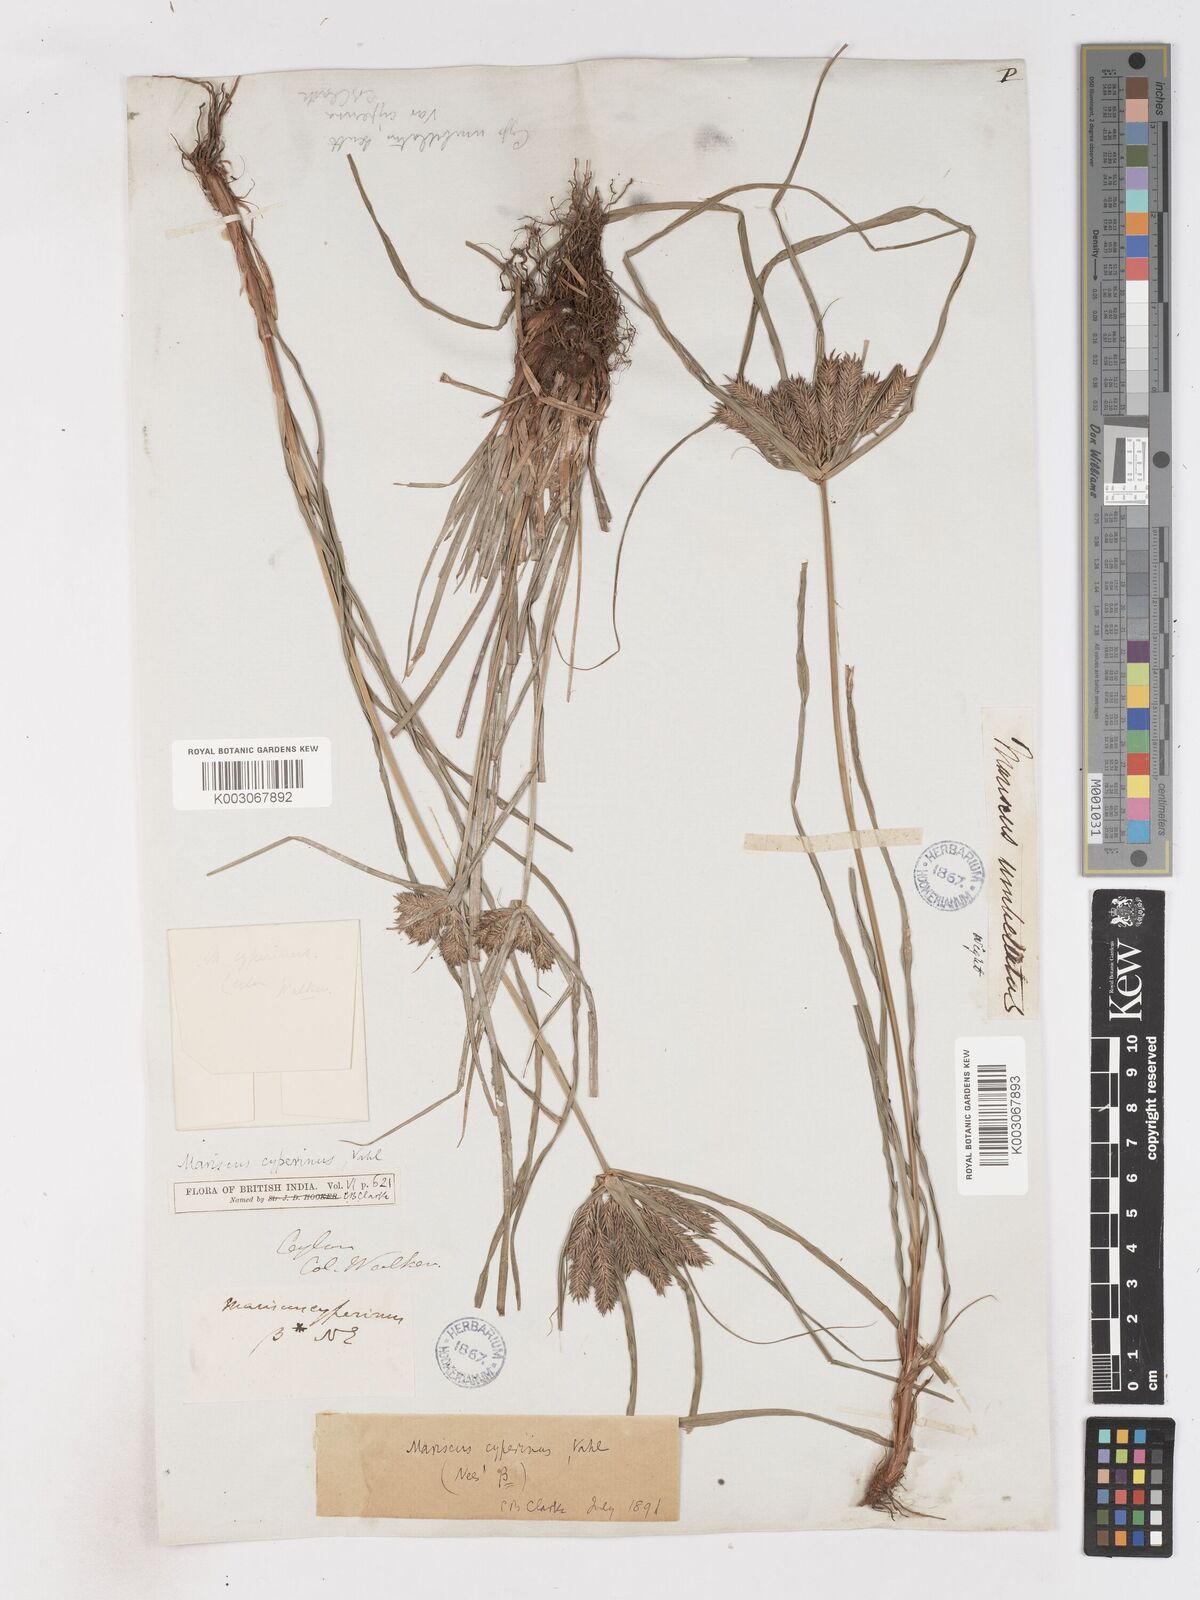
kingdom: Plantae
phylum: Tracheophyta
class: Liliopsida
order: Poales
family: Cyperaceae
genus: Cyperus
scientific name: Cyperus cyperinus
